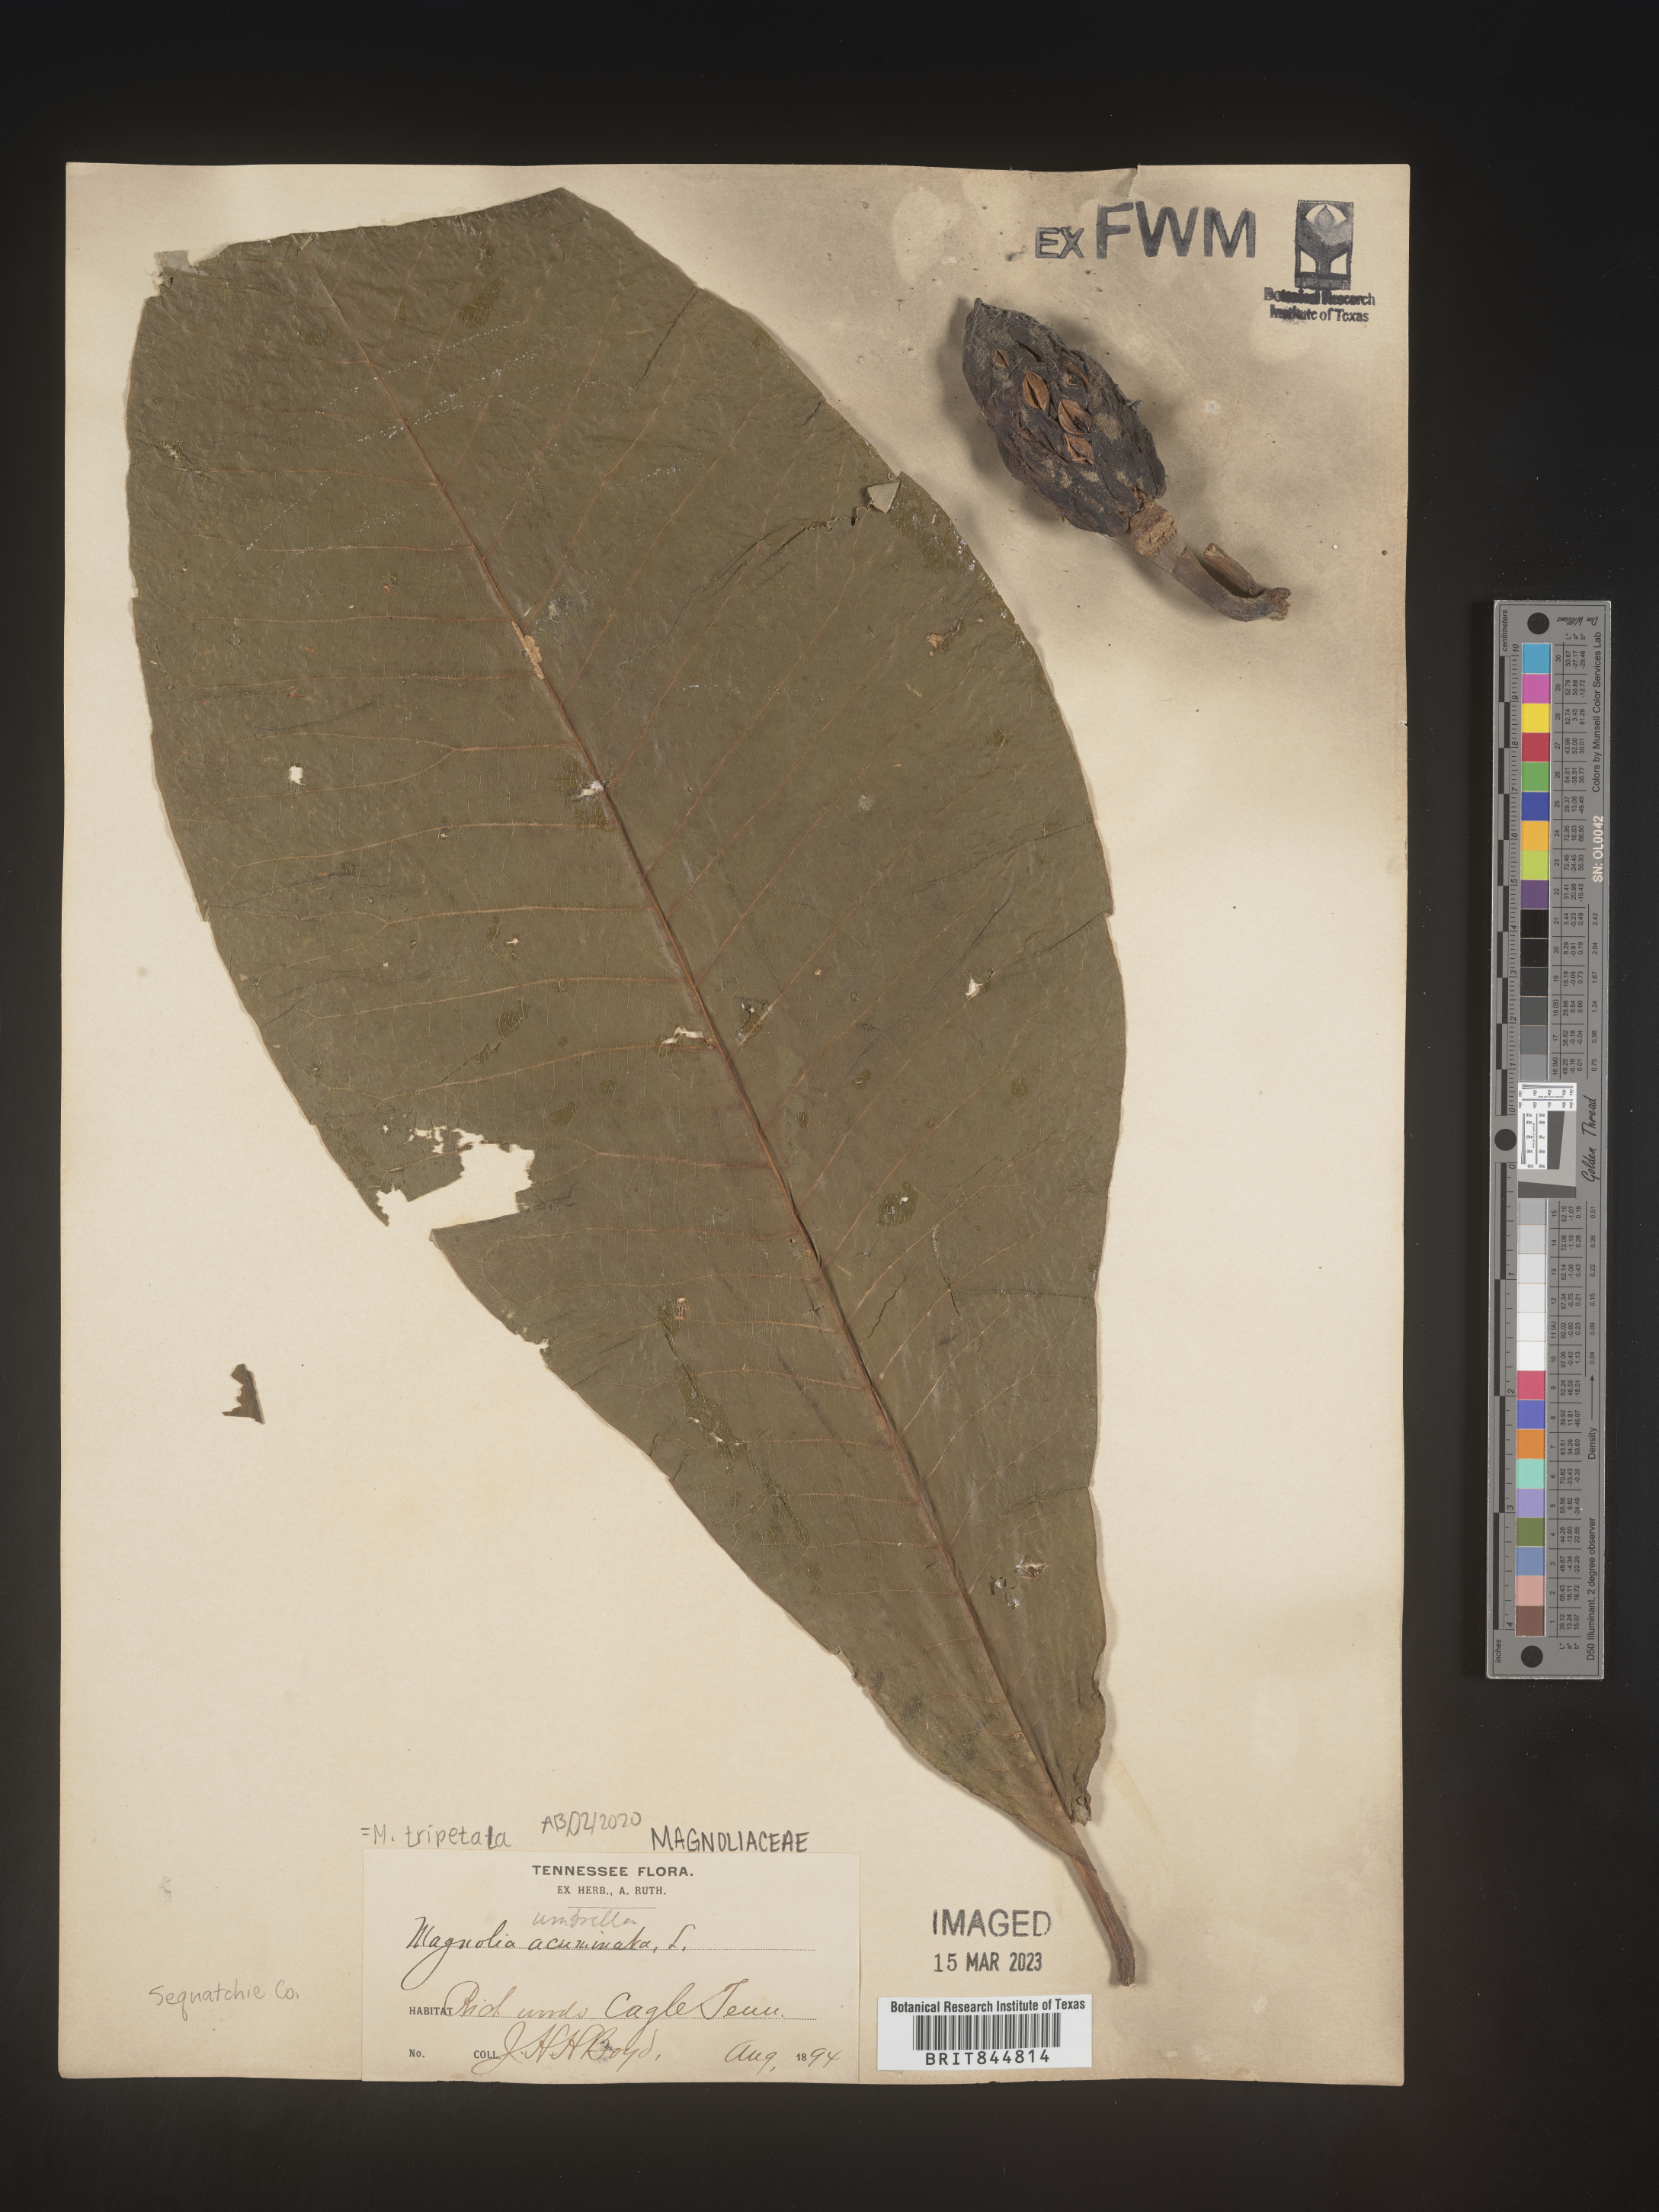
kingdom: Plantae
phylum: Tracheophyta
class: Magnoliopsida
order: Magnoliales
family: Magnoliaceae
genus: Magnolia
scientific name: Magnolia tripetala
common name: Umbrella magnolia
